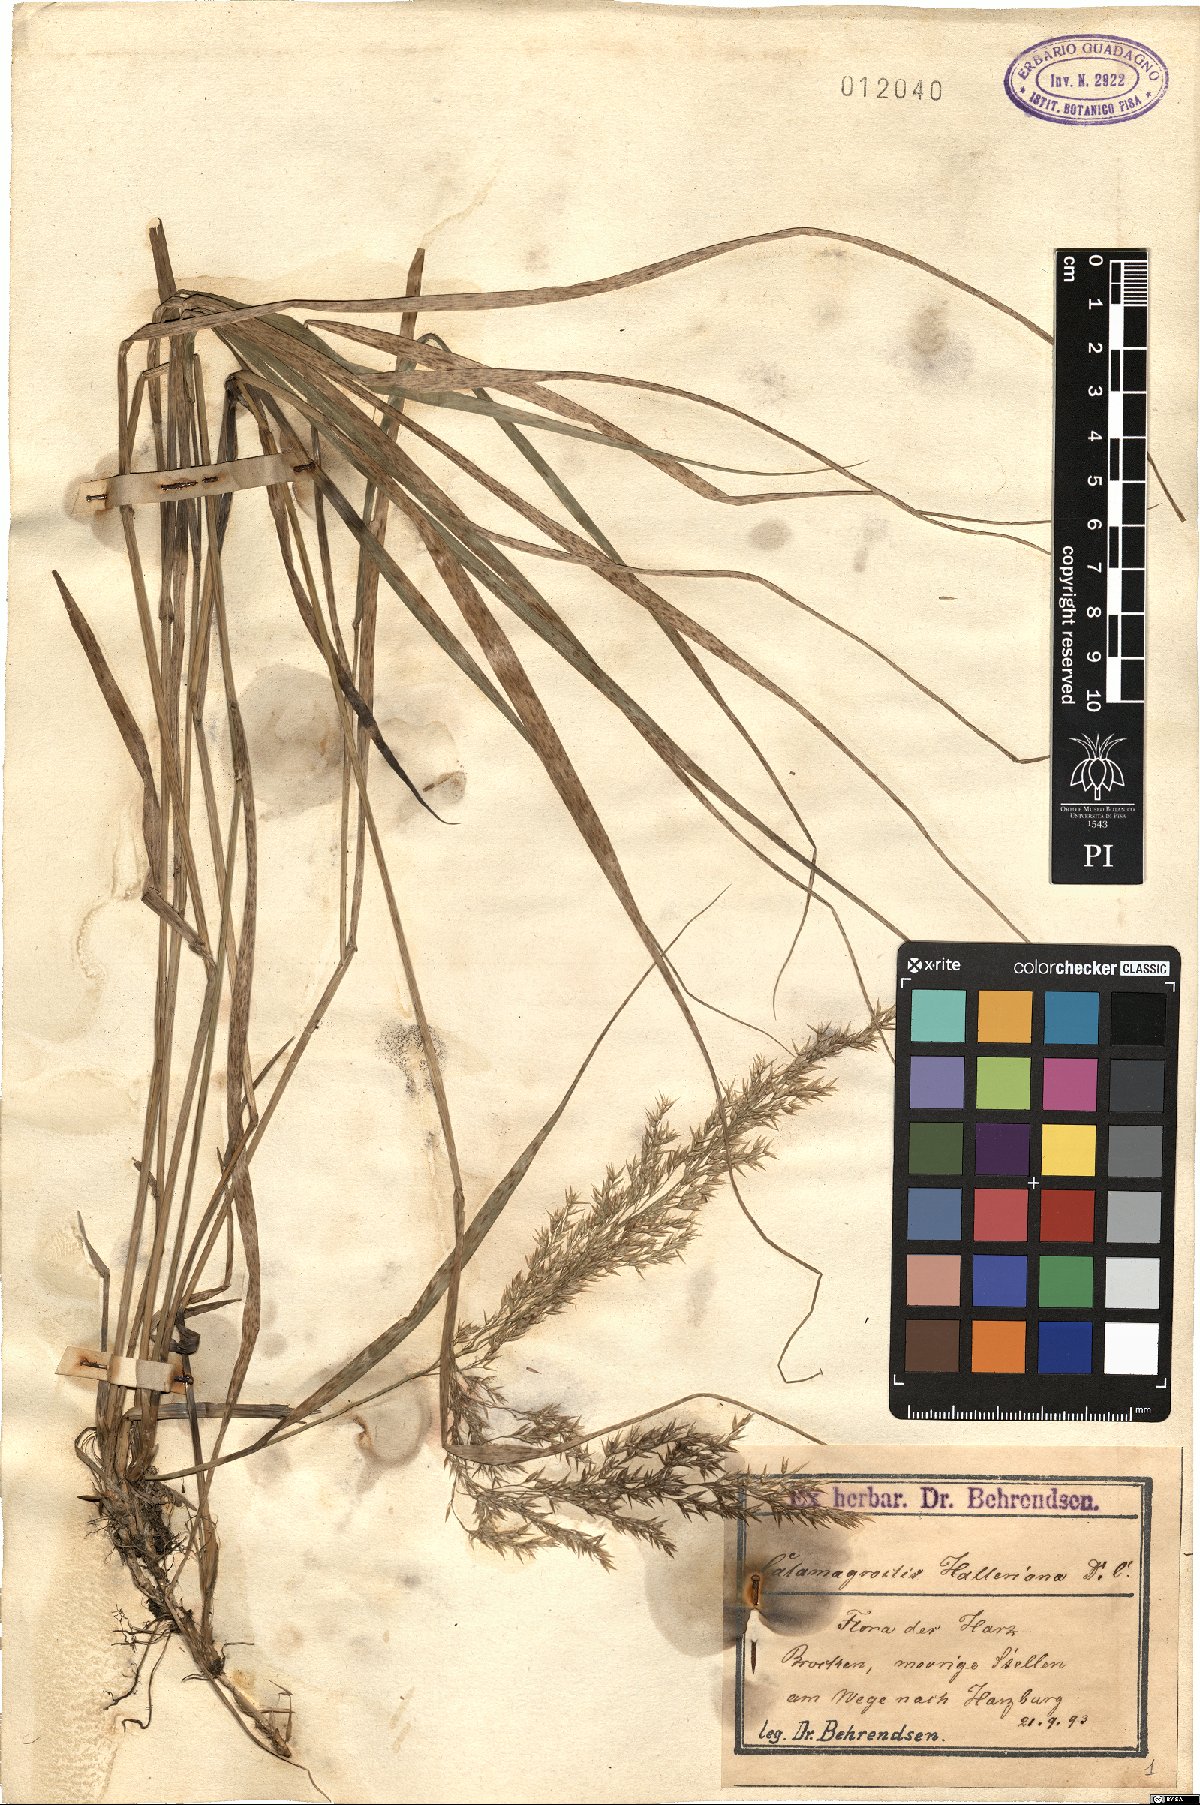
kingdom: Plantae
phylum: Tracheophyta
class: Liliopsida
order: Poales
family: Poaceae
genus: Calamagrostis
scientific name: Calamagrostis villosa
